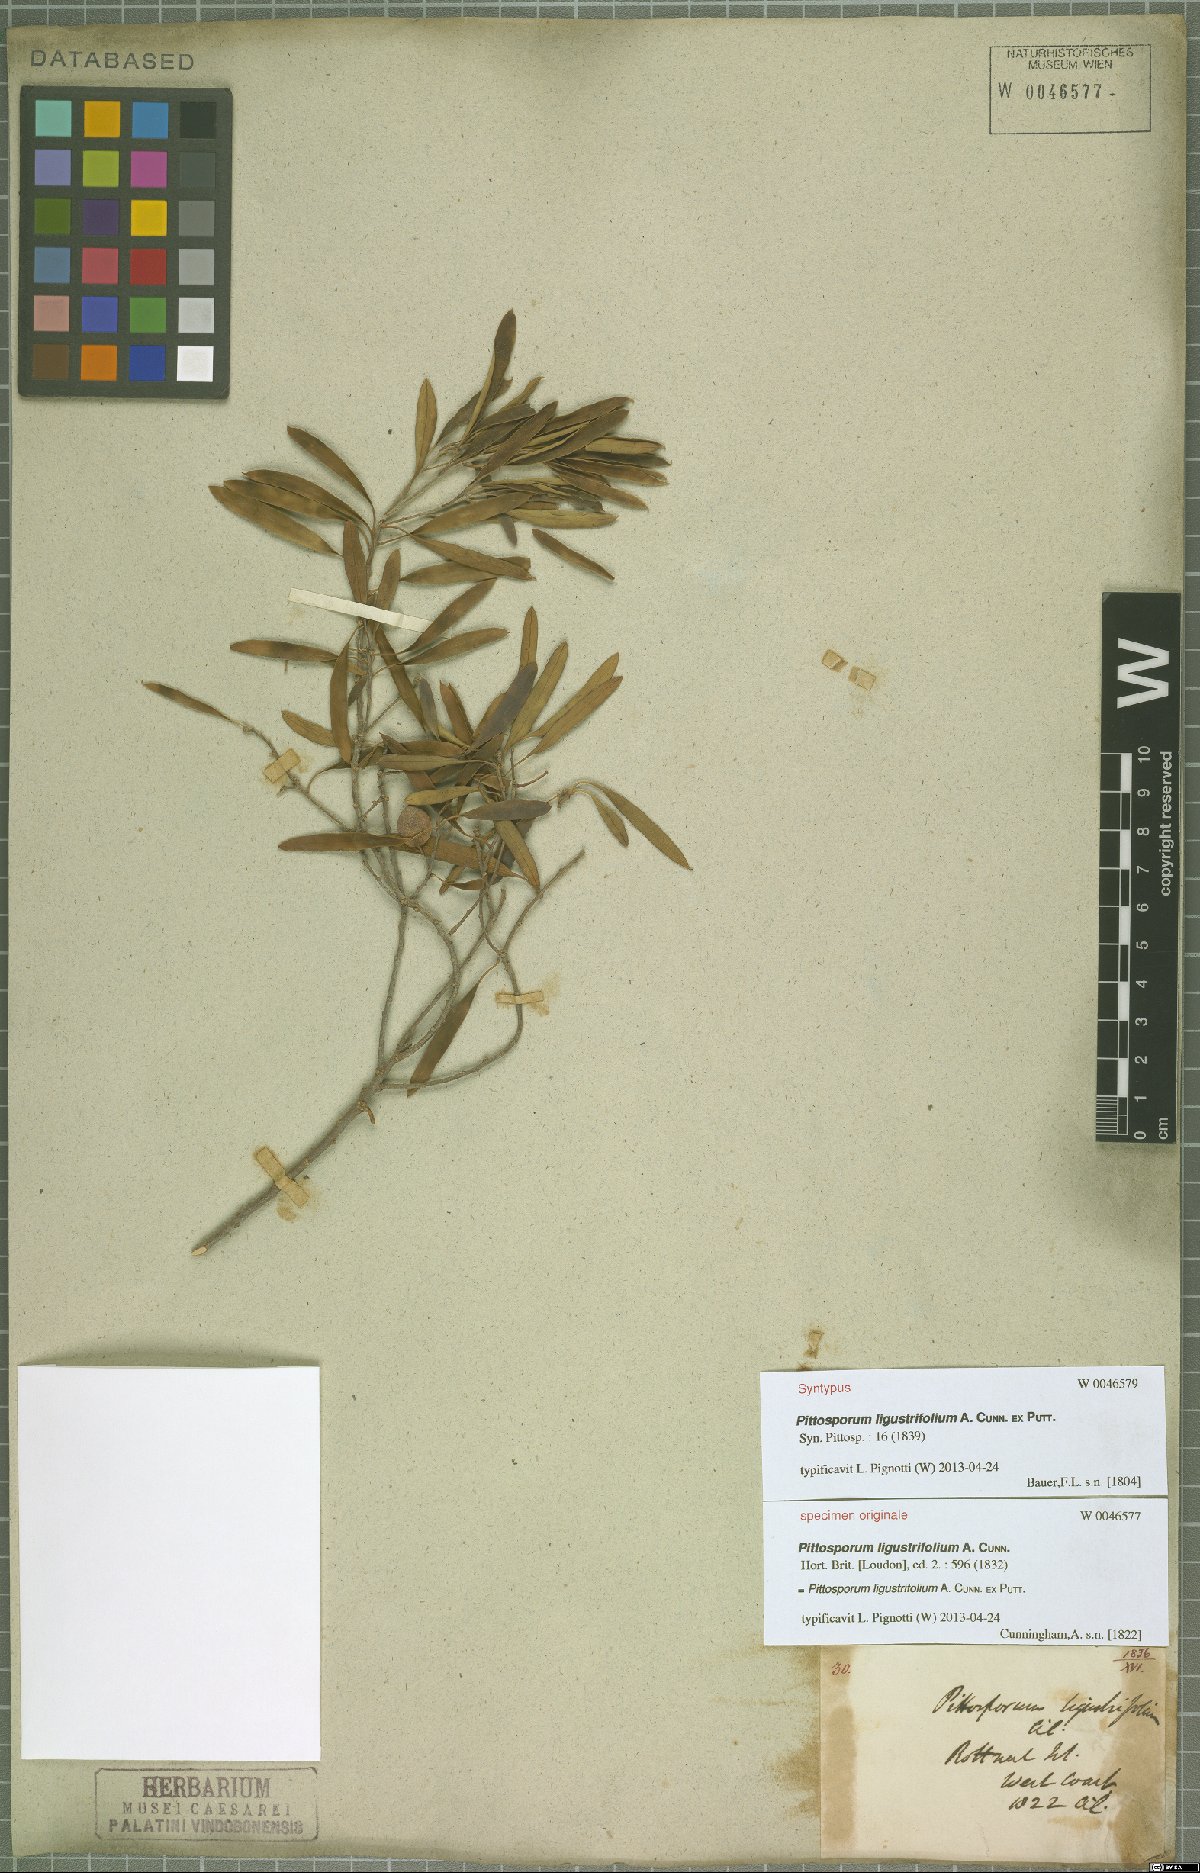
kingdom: Plantae
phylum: Tracheophyta
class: Magnoliopsida
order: Apiales
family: Pittosporaceae
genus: Pittosporum
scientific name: Pittosporum phillyraeoides
